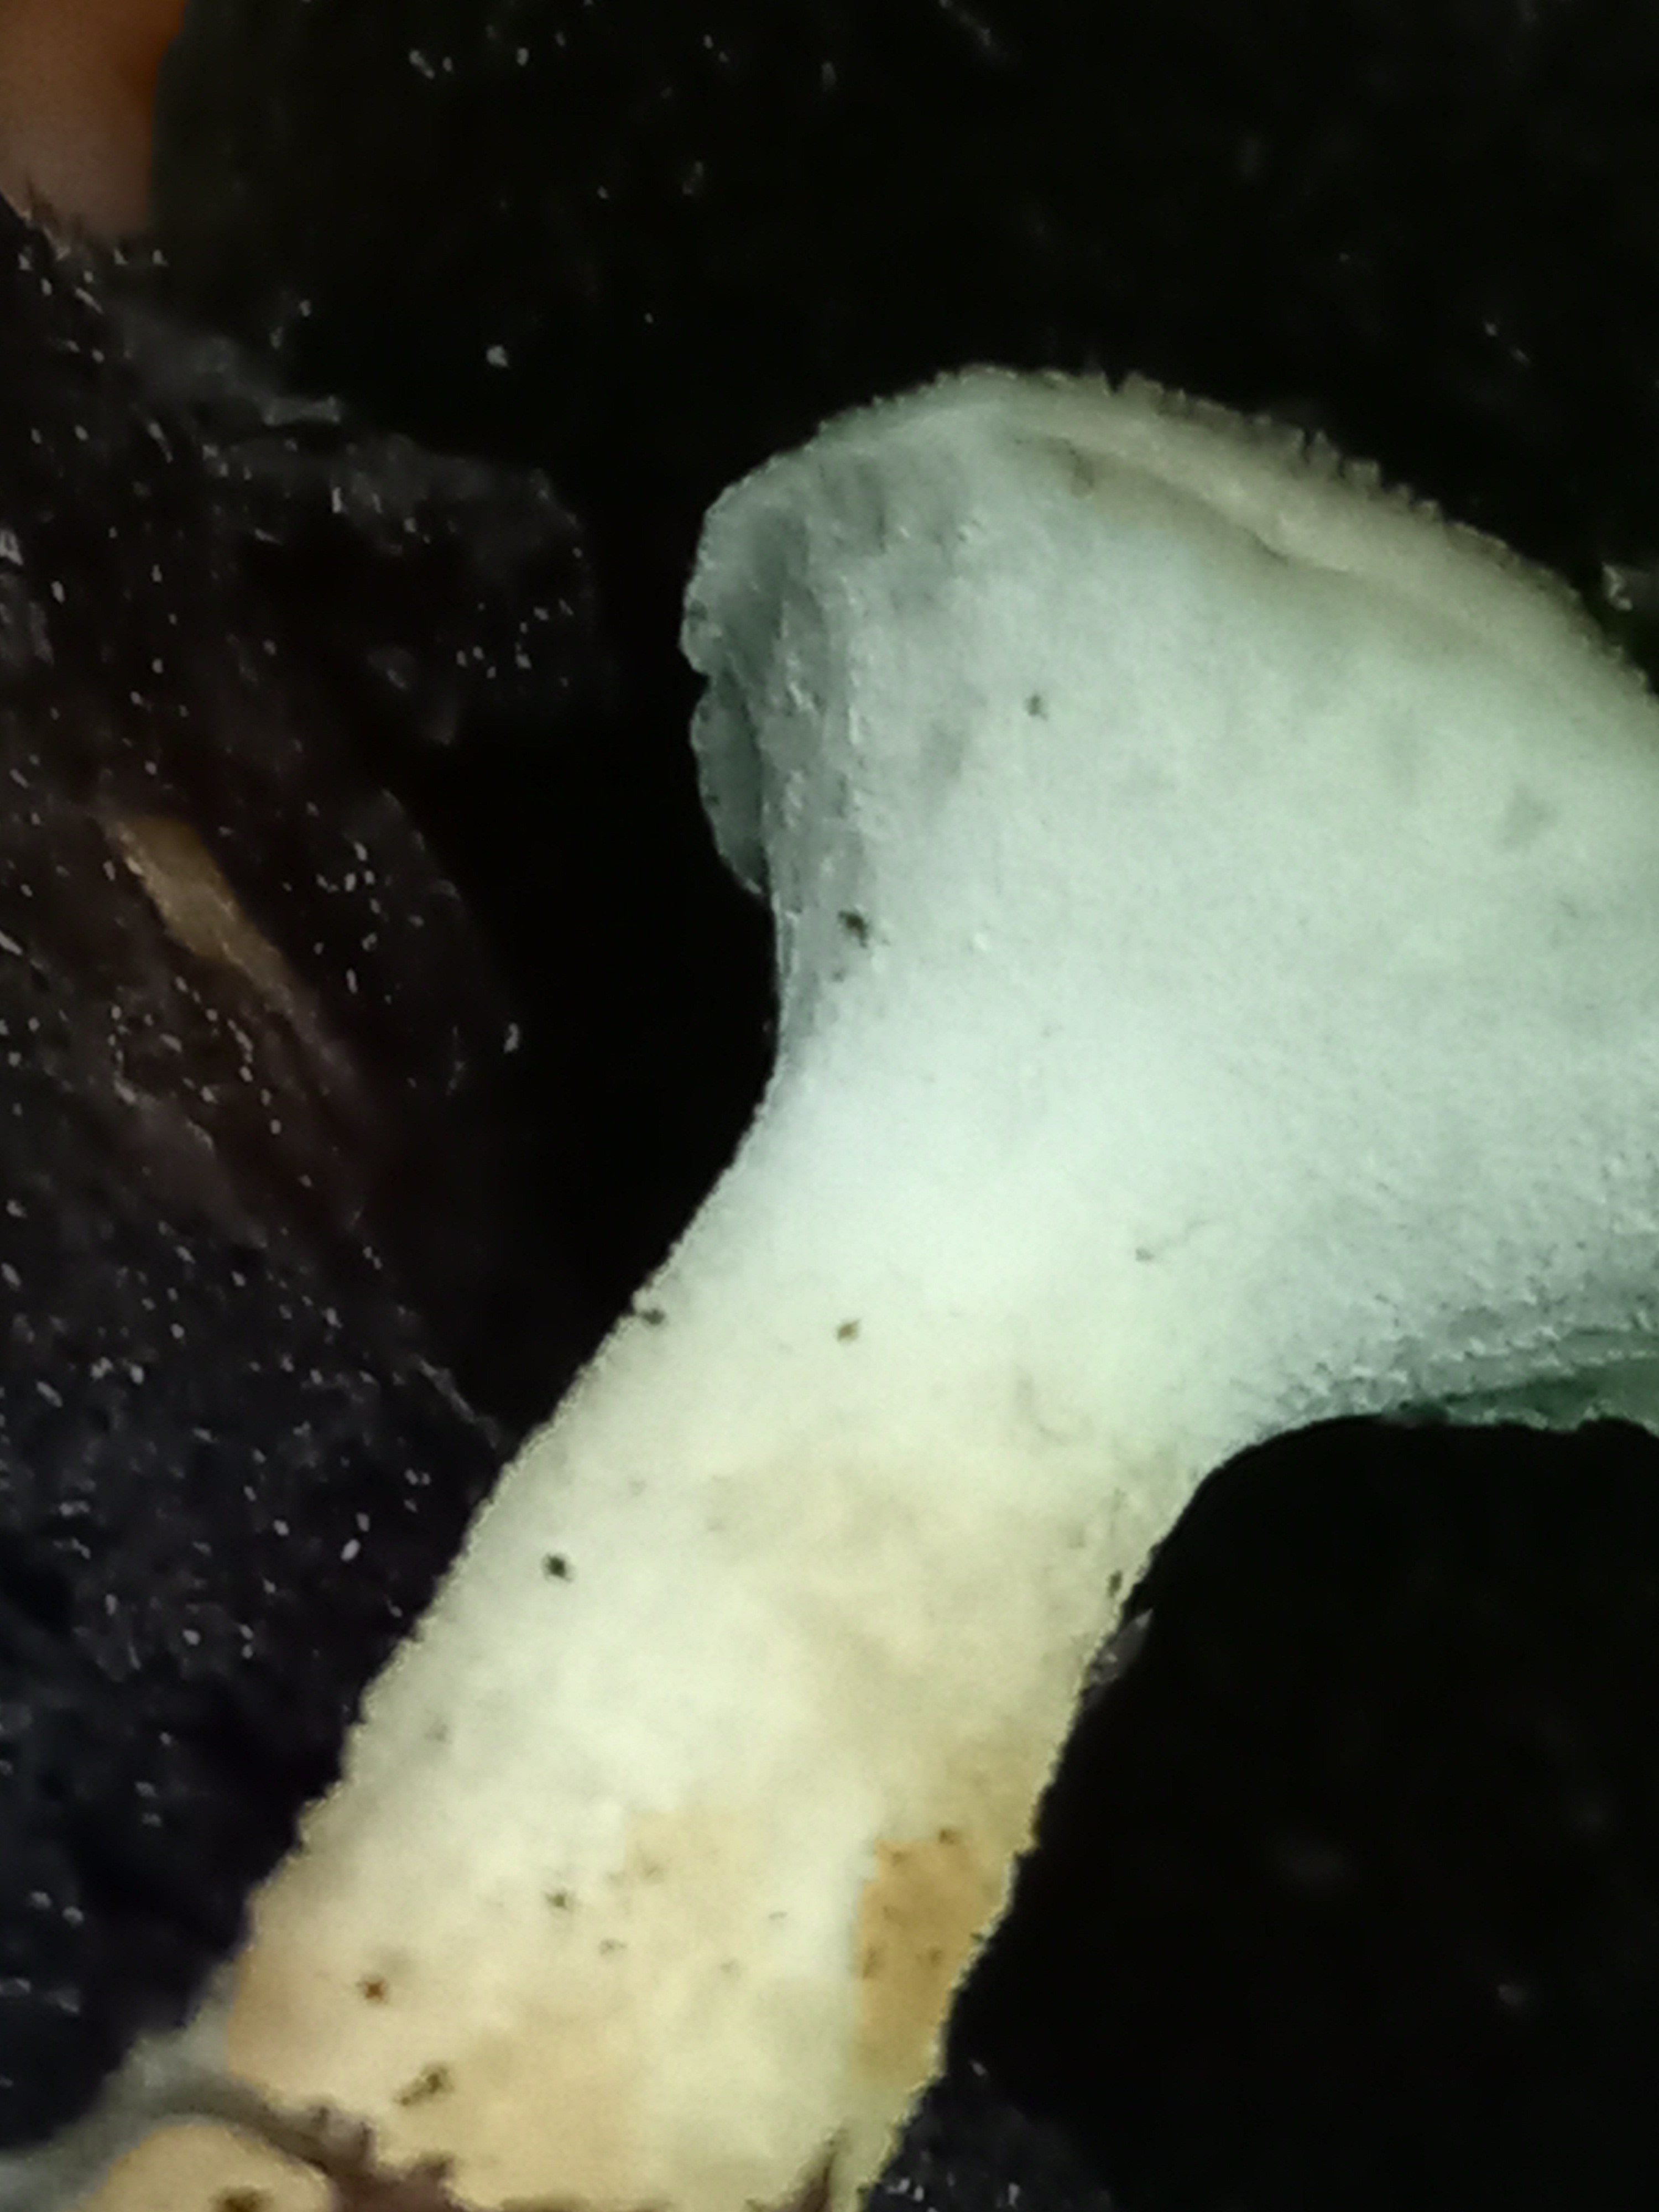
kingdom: Fungi
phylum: Basidiomycota
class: Agaricomycetes
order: Polyporales
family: Polyporaceae
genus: Polyporus
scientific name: Polyporus tuberaster
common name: knoldet stilkporesvamp
